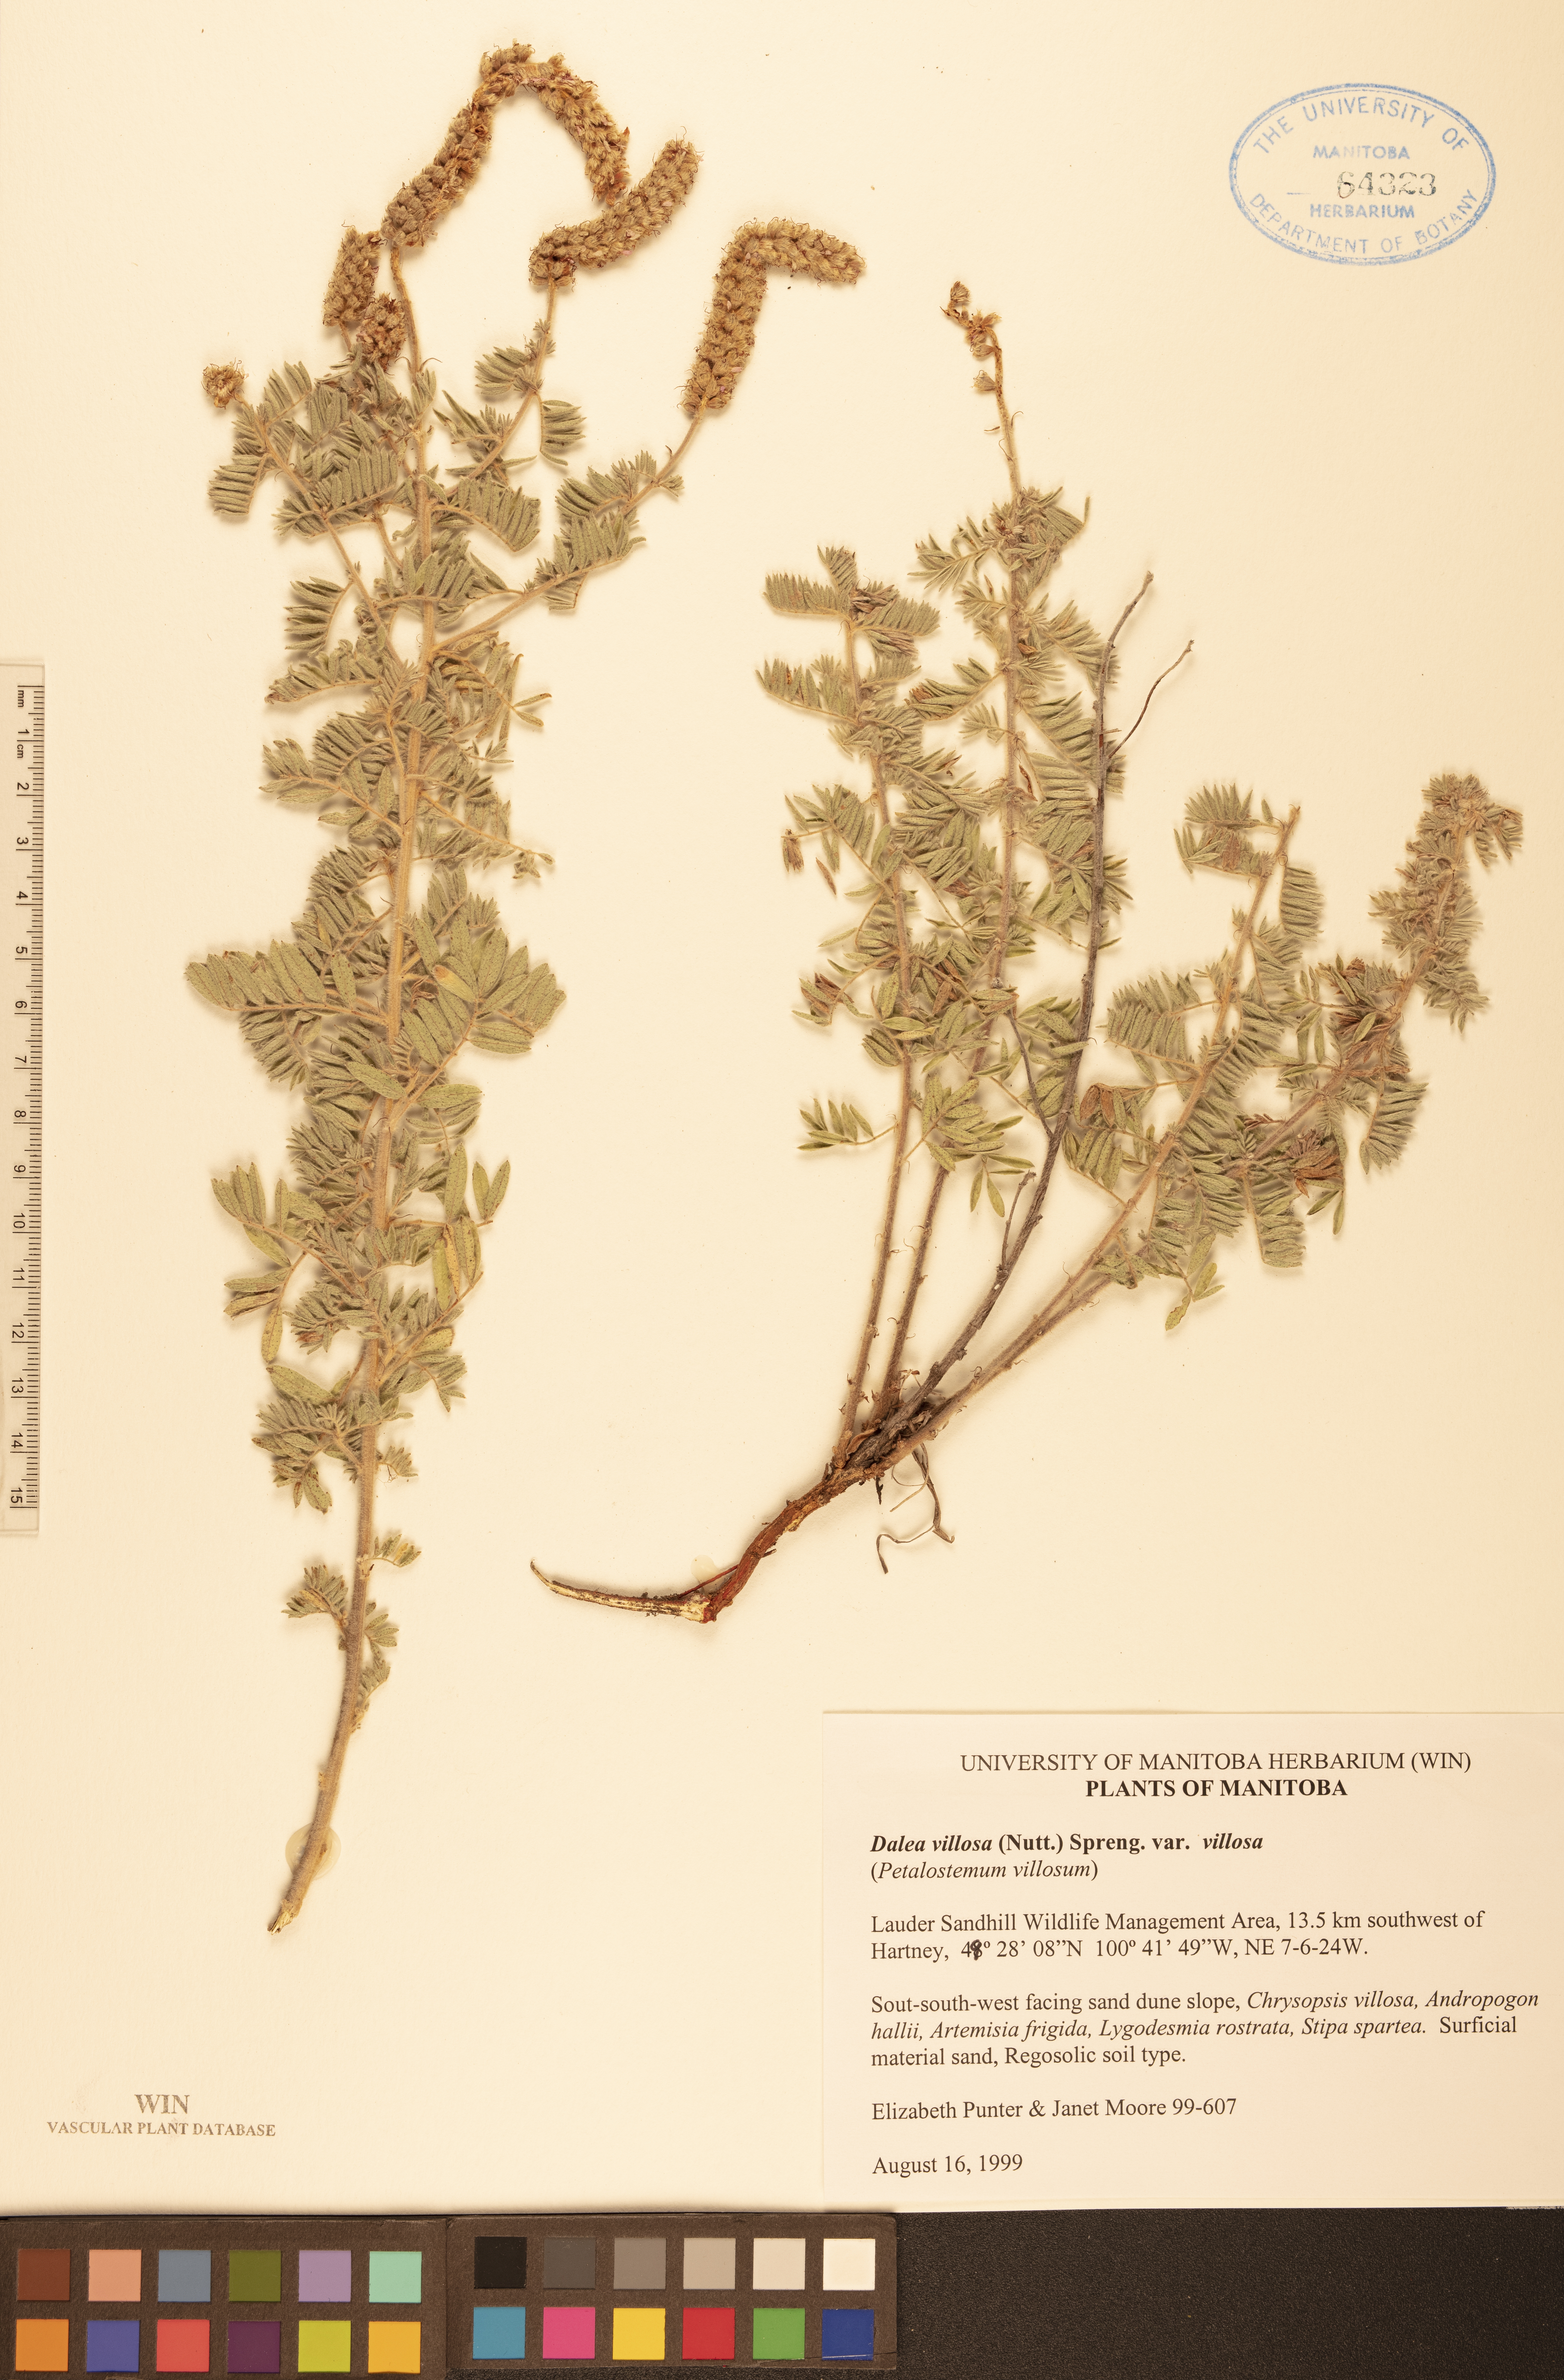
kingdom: Plantae
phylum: Tracheophyta
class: Magnoliopsida
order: Fabales
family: Fabaceae
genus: Dalea
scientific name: Dalea villosa
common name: Silky prairie-clover
